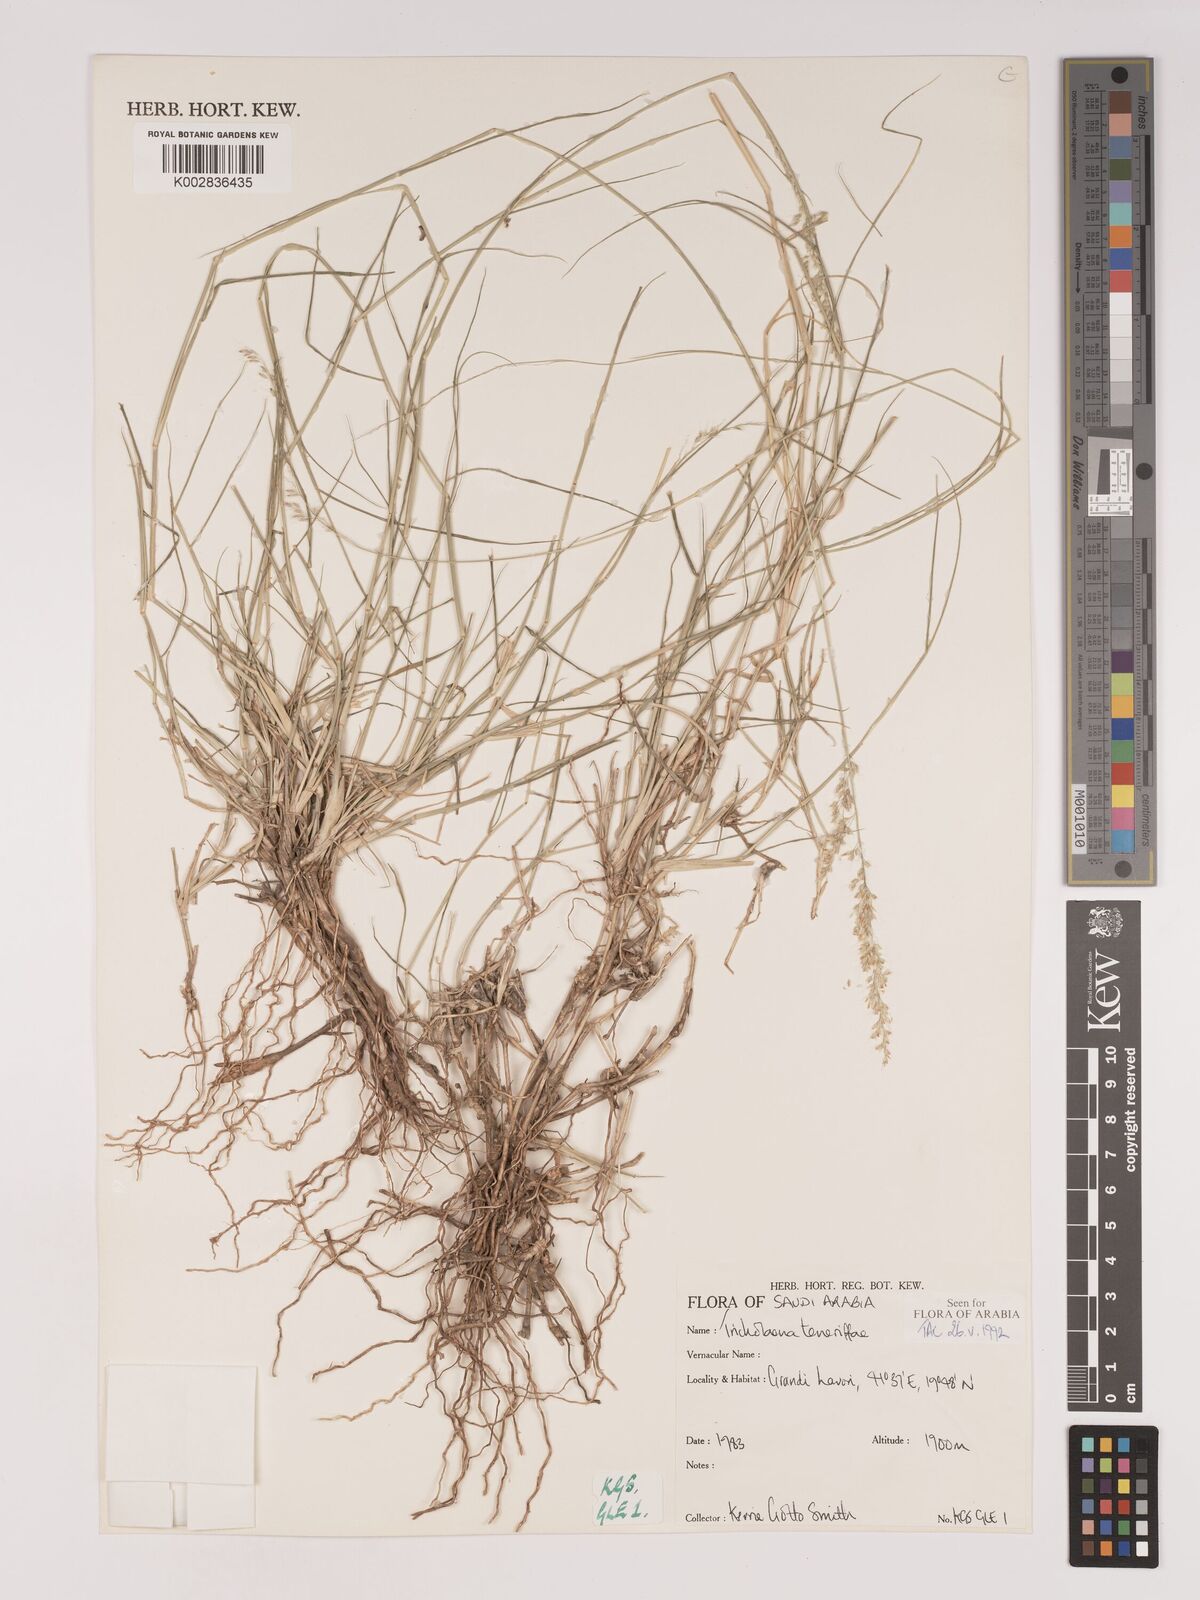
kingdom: Plantae
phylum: Tracheophyta
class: Liliopsida
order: Poales
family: Poaceae
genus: Tricholaena
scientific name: Tricholaena teneriffae
